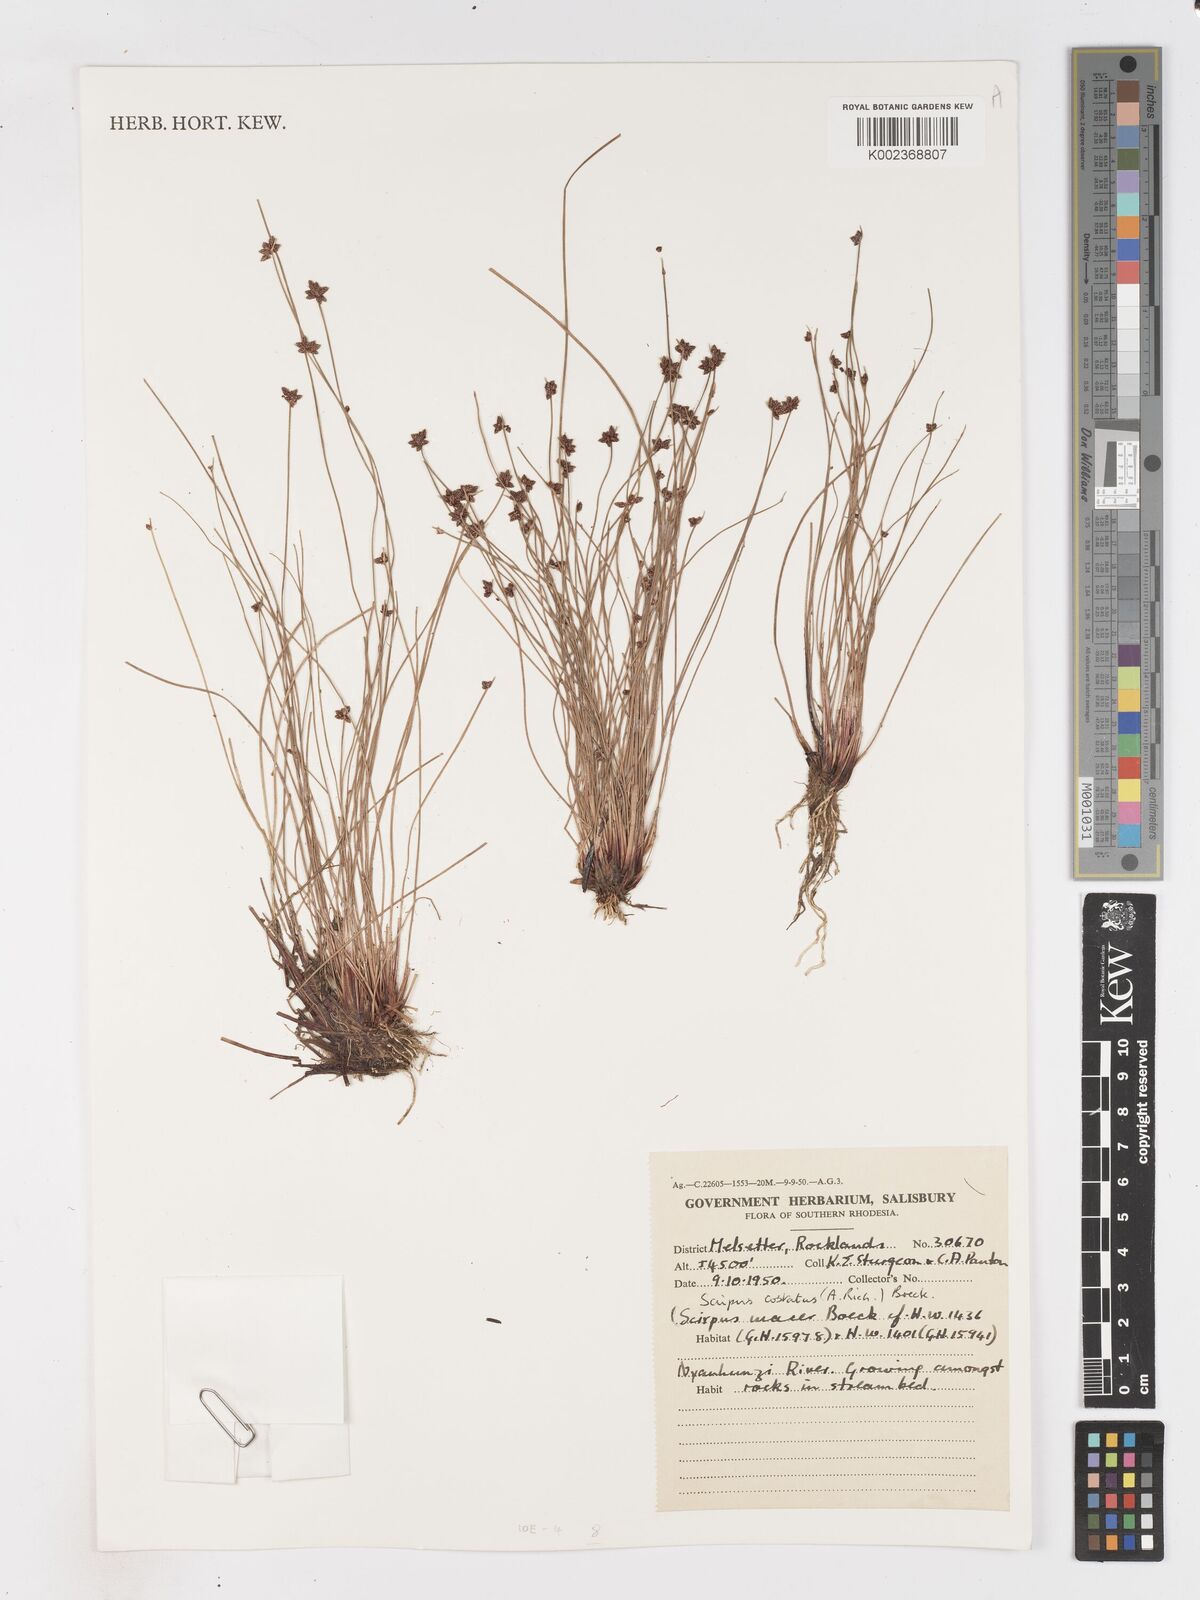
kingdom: Plantae
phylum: Tracheophyta
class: Liliopsida
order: Poales
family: Cyperaceae
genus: Isolepis
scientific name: Isolepis costata
